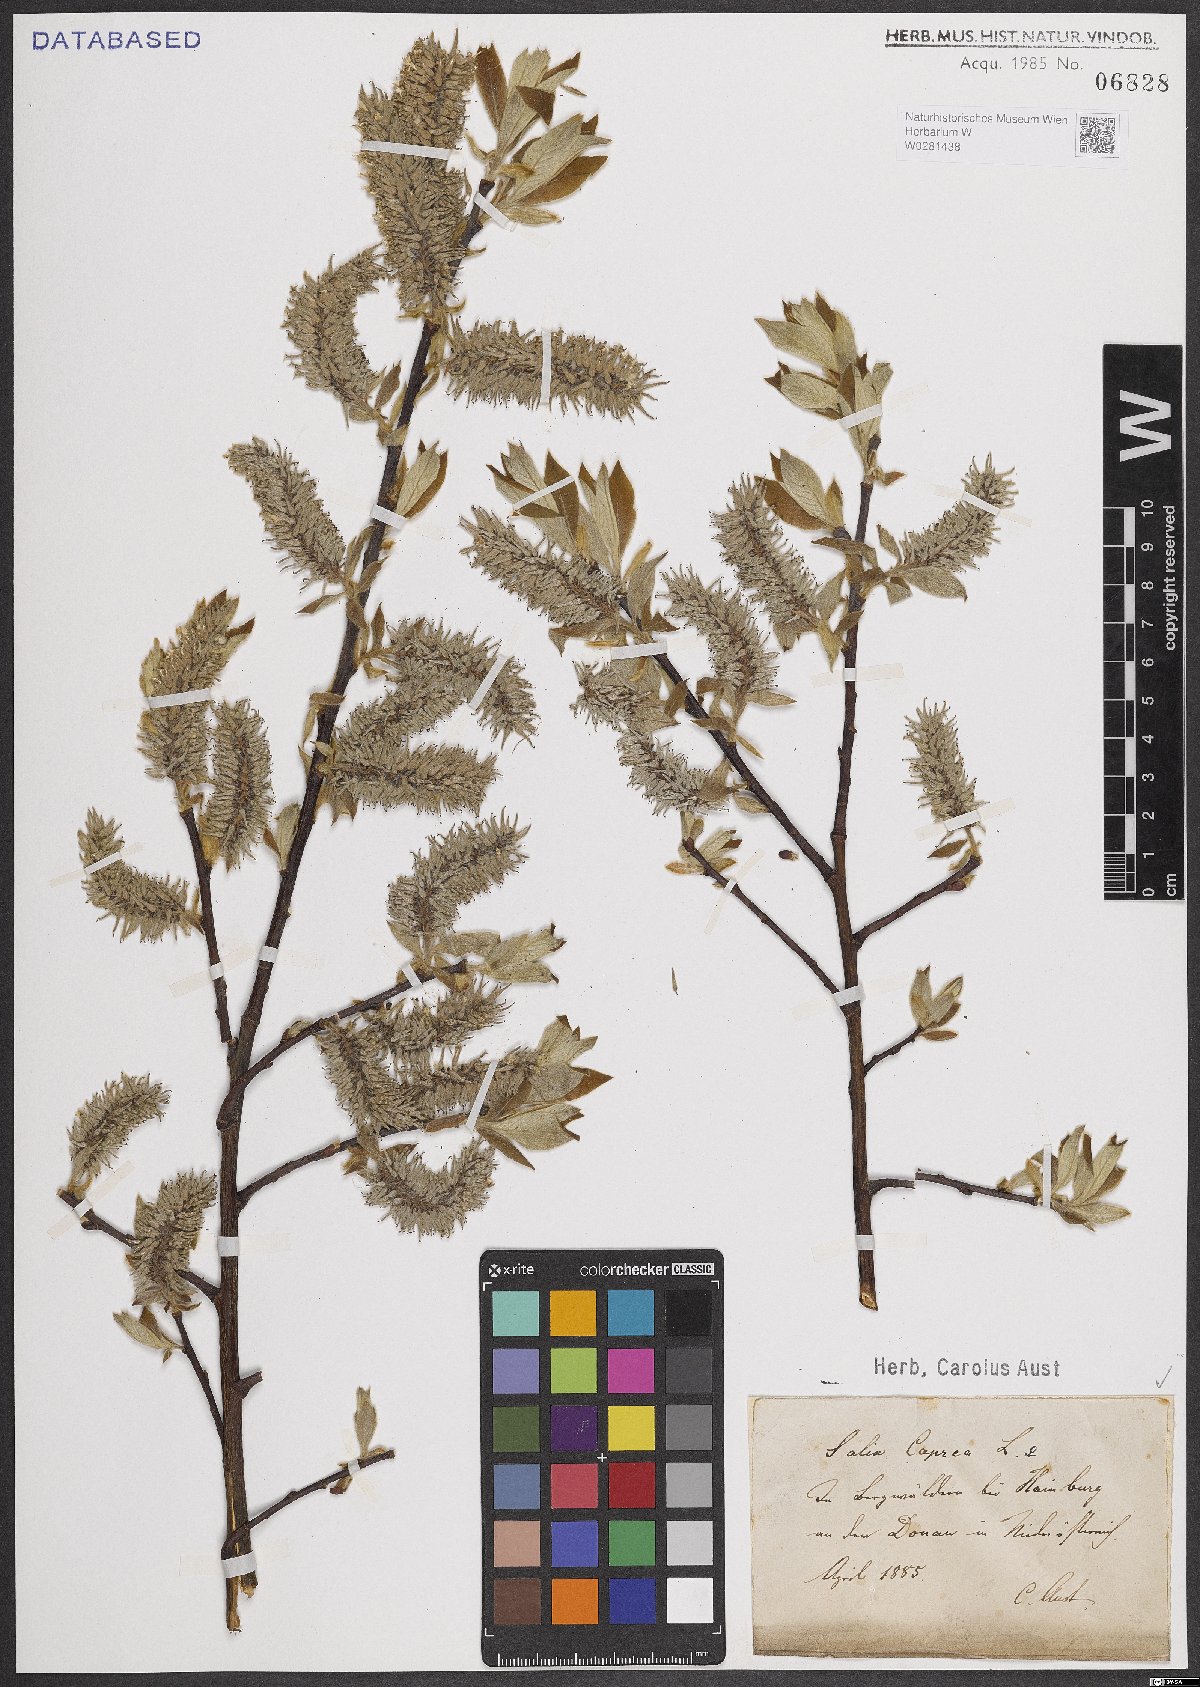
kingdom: Plantae
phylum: Tracheophyta
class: Magnoliopsida
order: Malpighiales
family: Salicaceae
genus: Salix
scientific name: Salix caprea
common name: Goat willow
